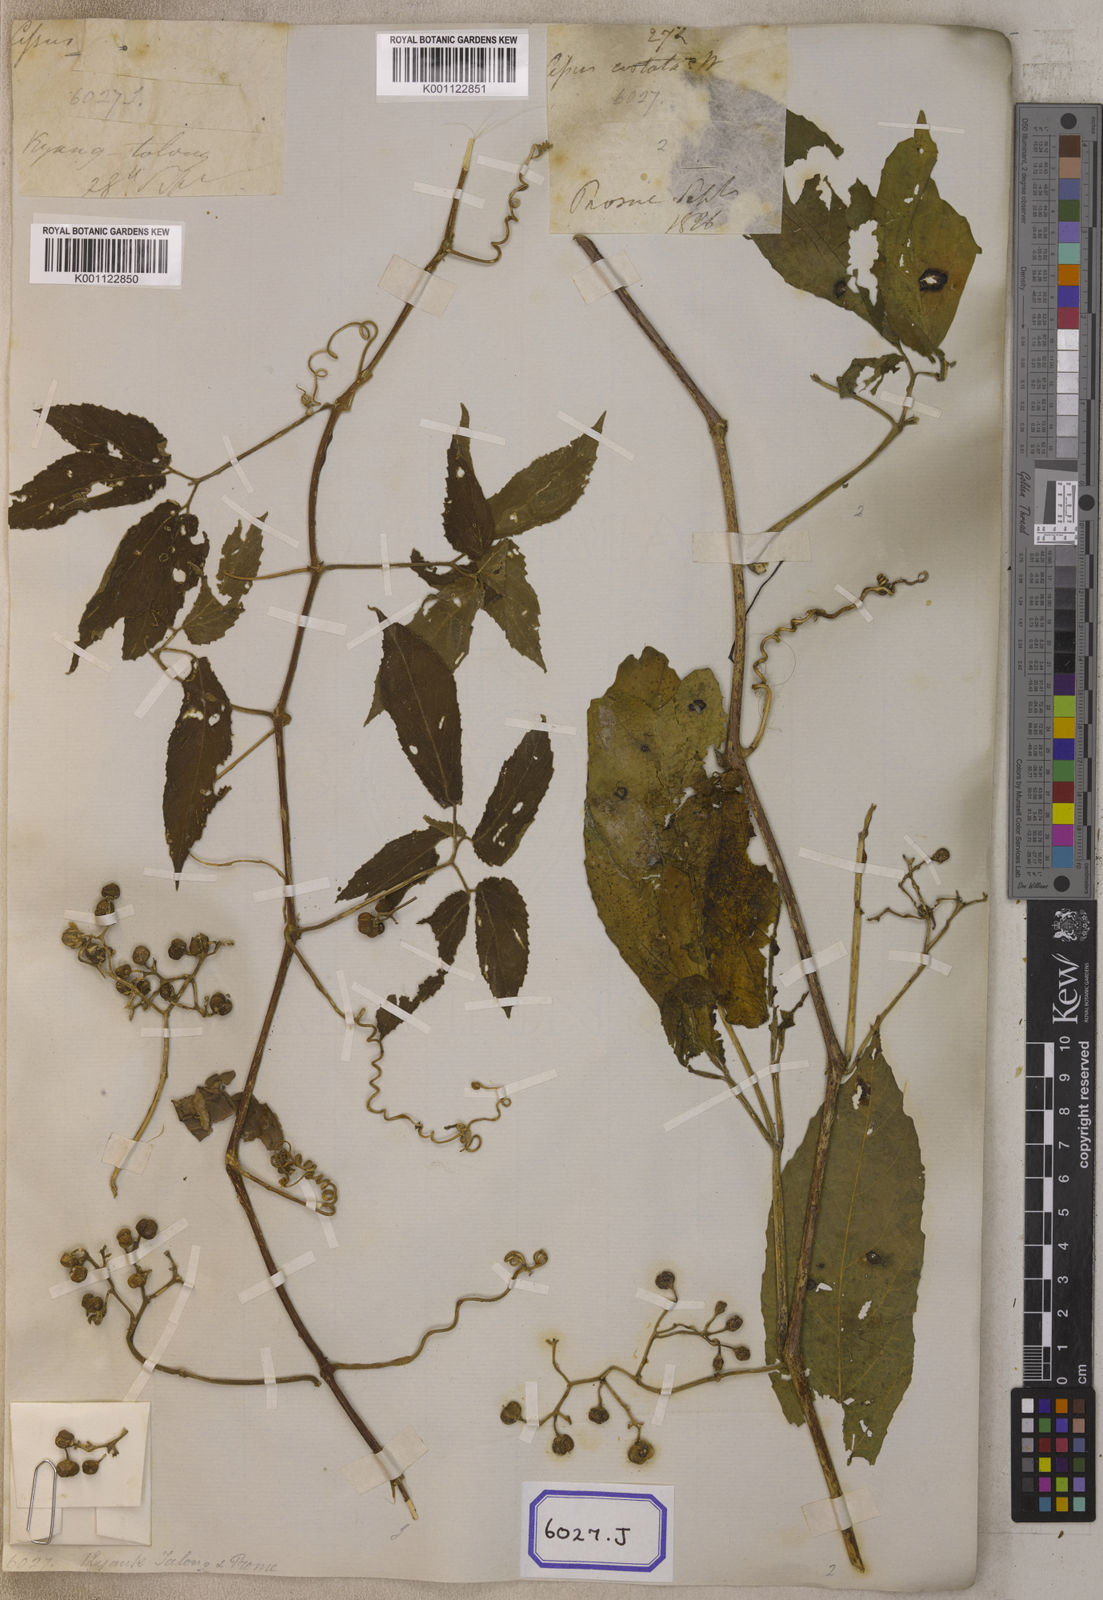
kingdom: Plantae
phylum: Tracheophyta
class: Magnoliopsida
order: Vitales
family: Vitaceae
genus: Cayratia
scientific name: Cayratia pedata
